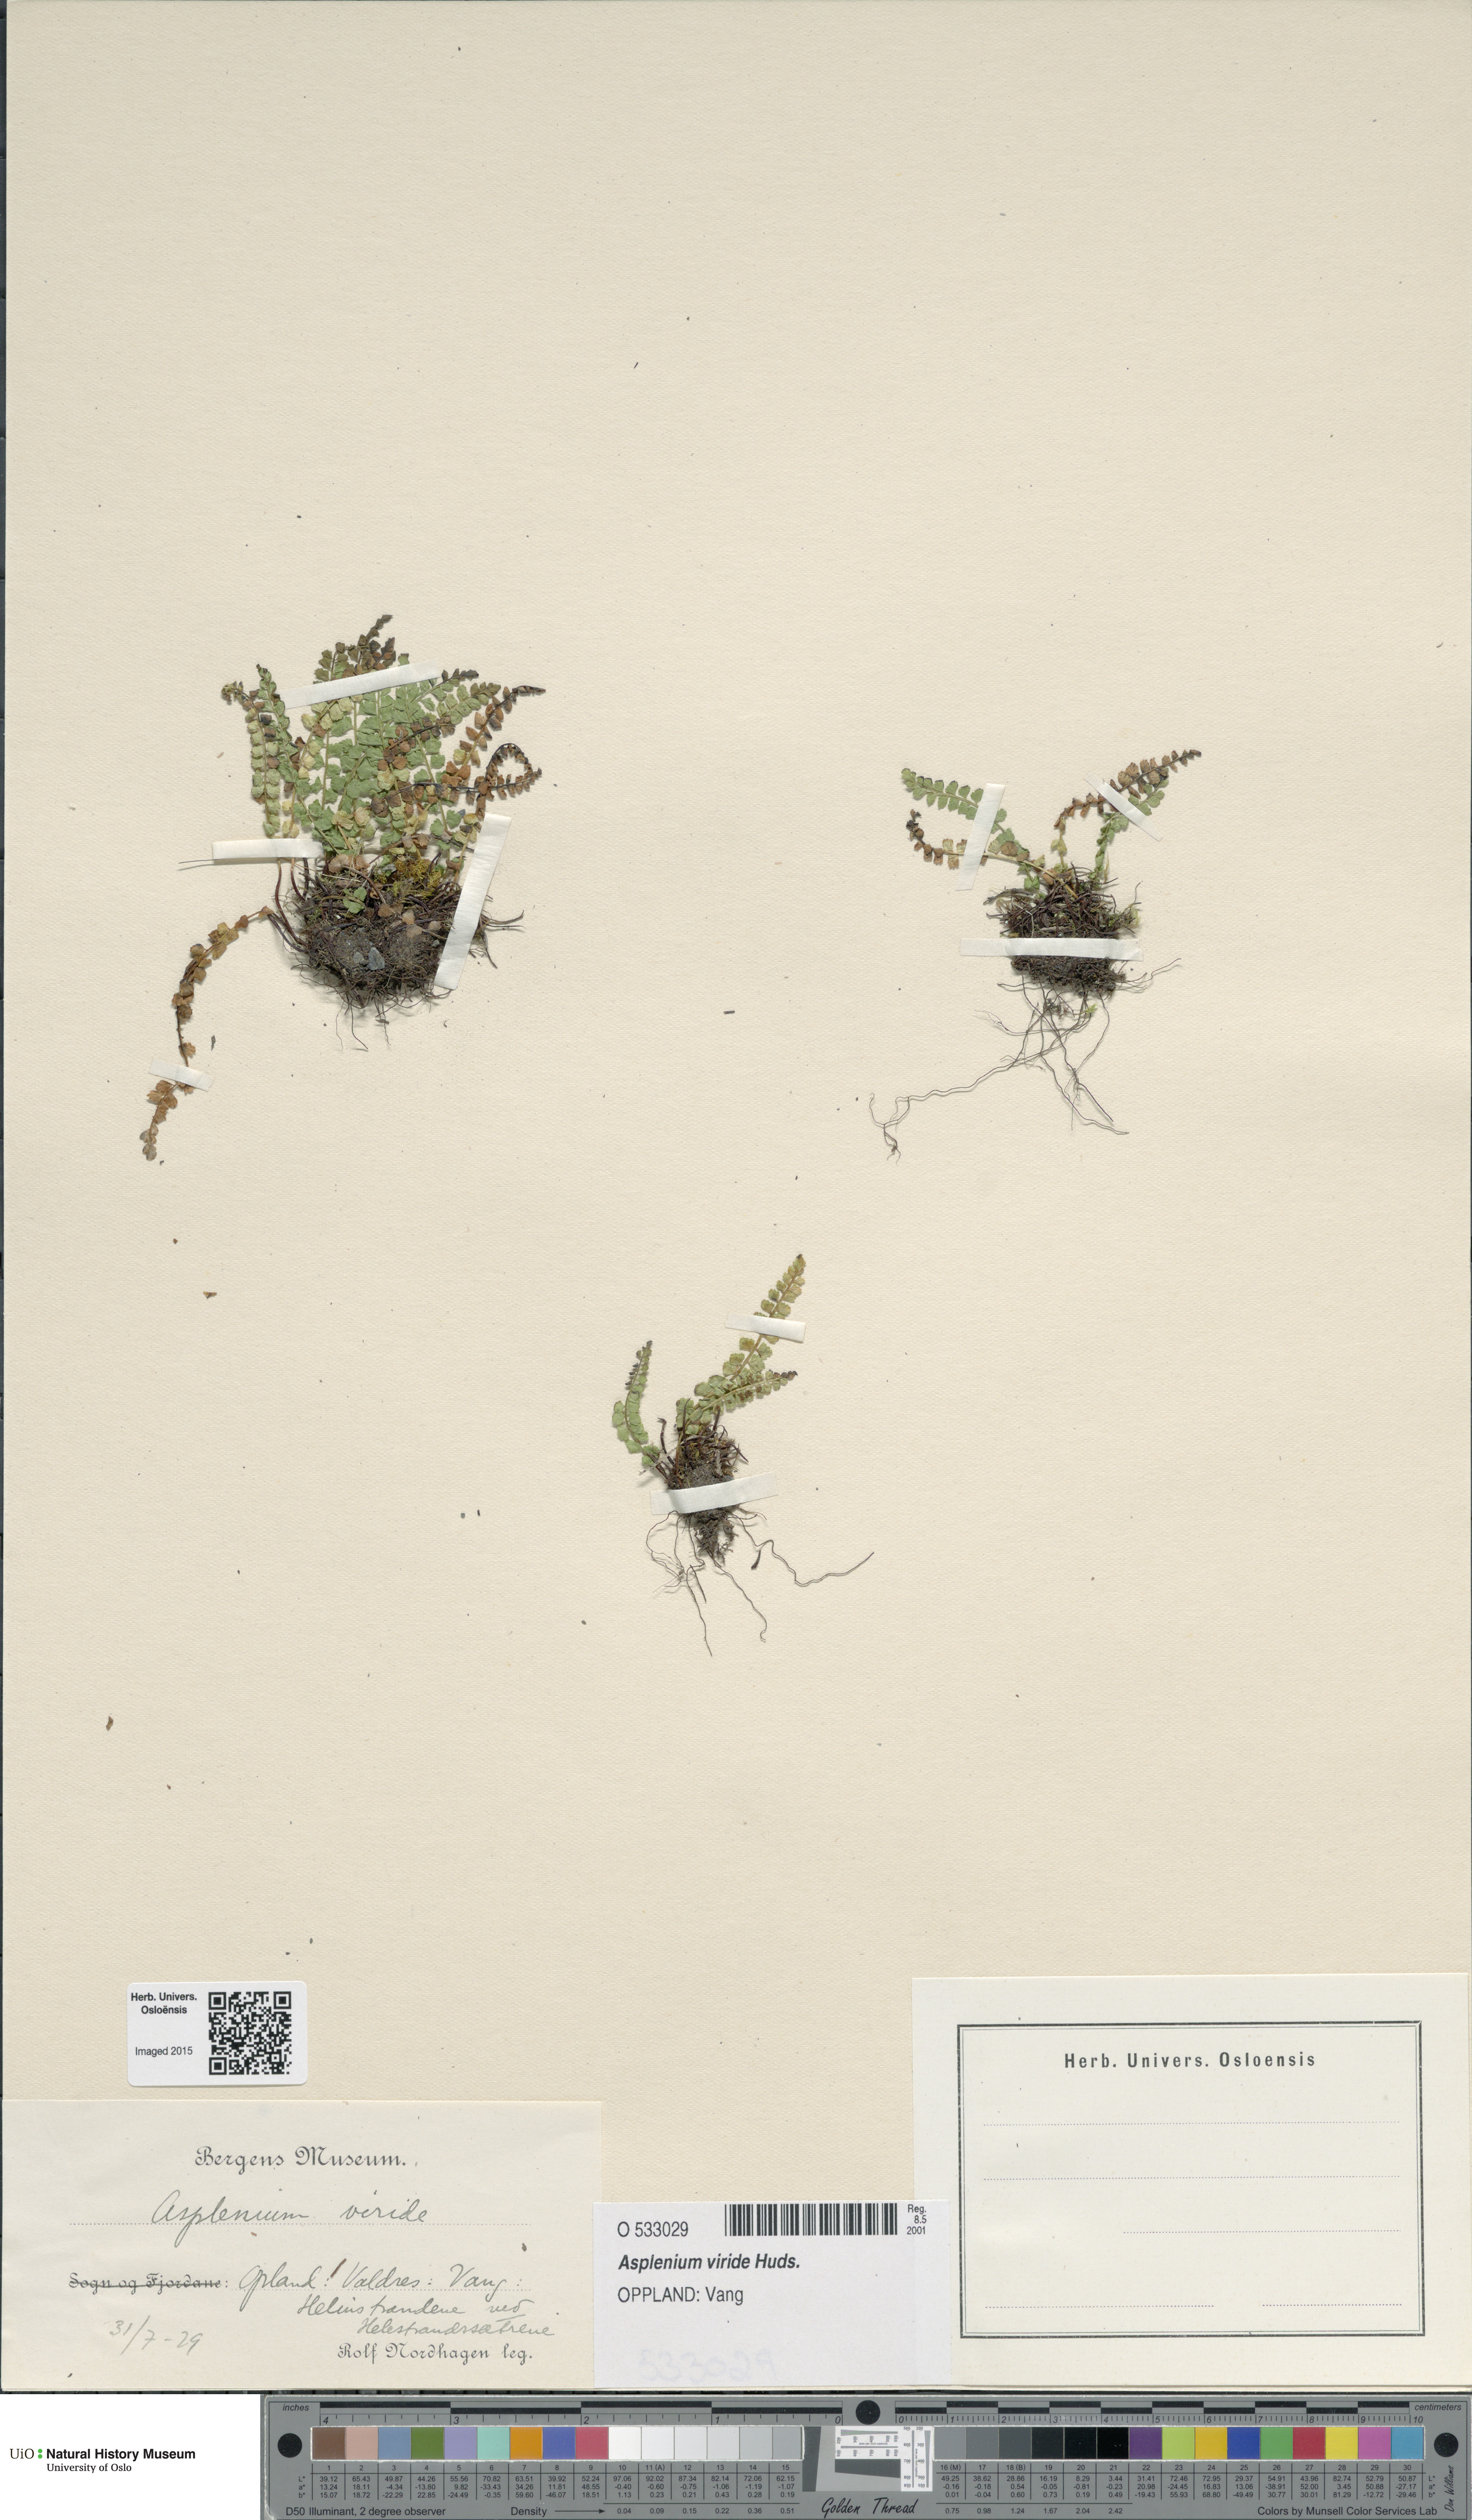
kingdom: Plantae
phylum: Tracheophyta
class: Polypodiopsida
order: Polypodiales
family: Aspleniaceae
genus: Asplenium
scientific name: Asplenium viride
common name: Green spleenwort
